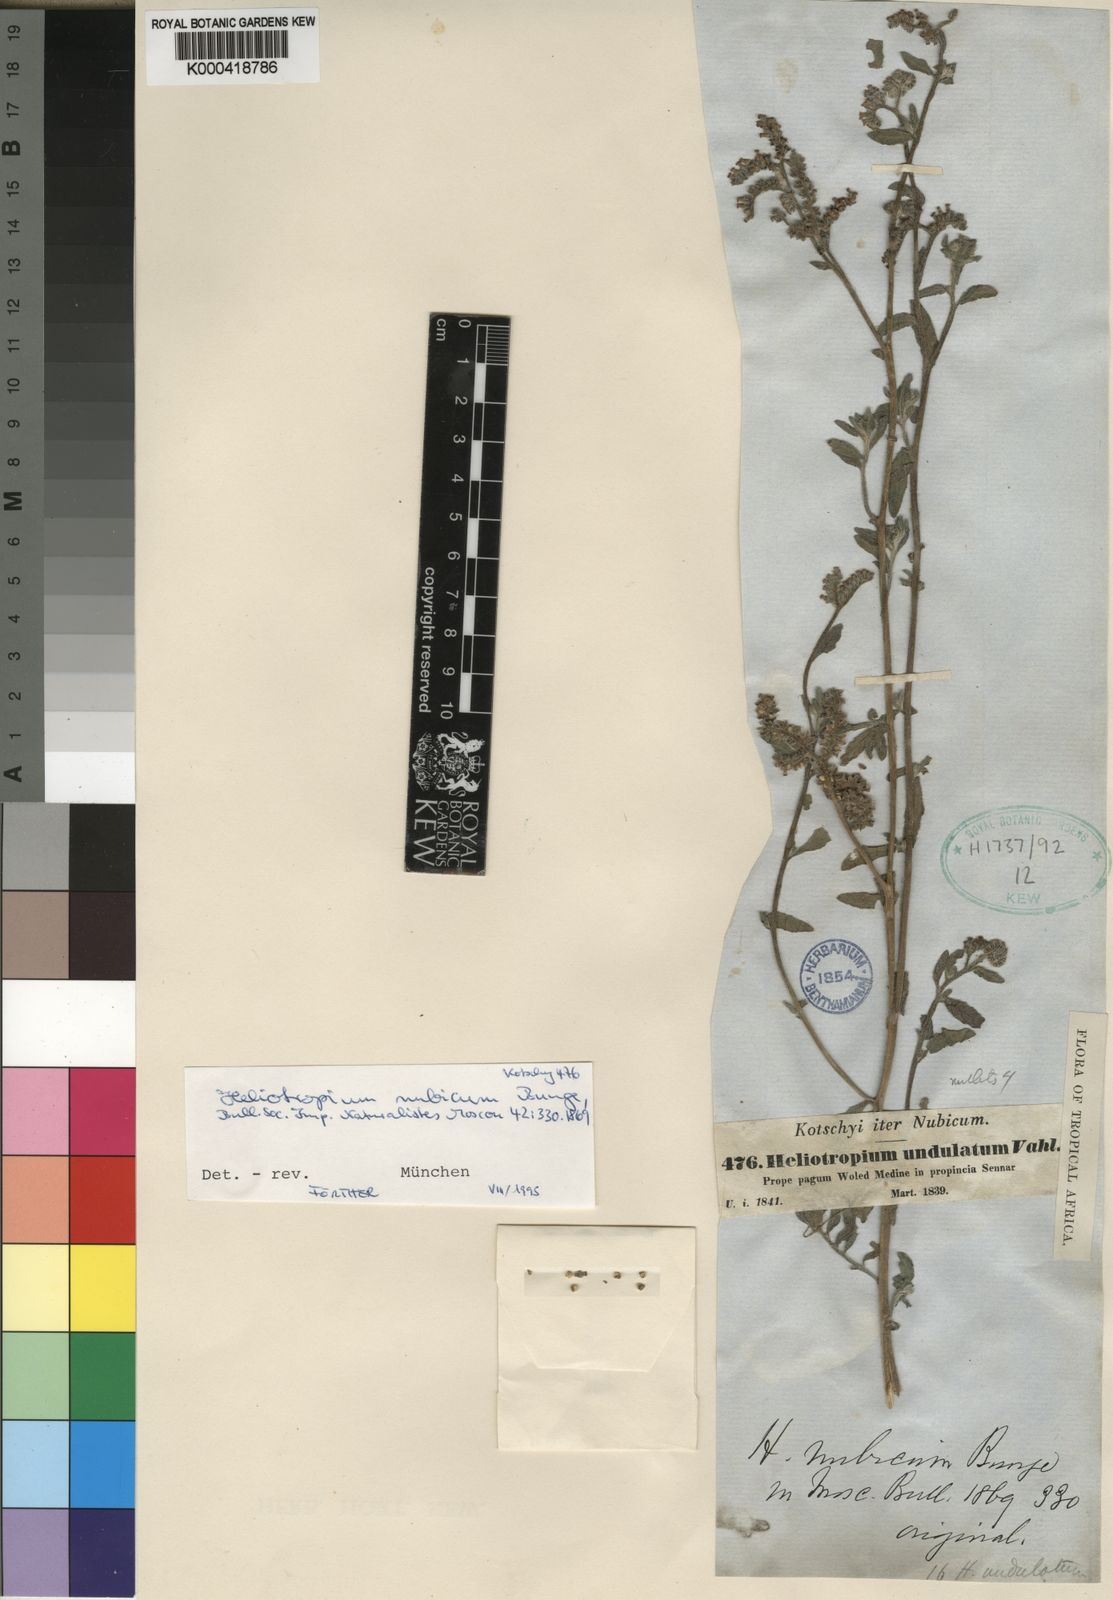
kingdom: Plantae
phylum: Tracheophyta
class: Magnoliopsida
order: Boraginales
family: Heliotropiaceae
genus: Heliotropium
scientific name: Heliotropium bacciferum
